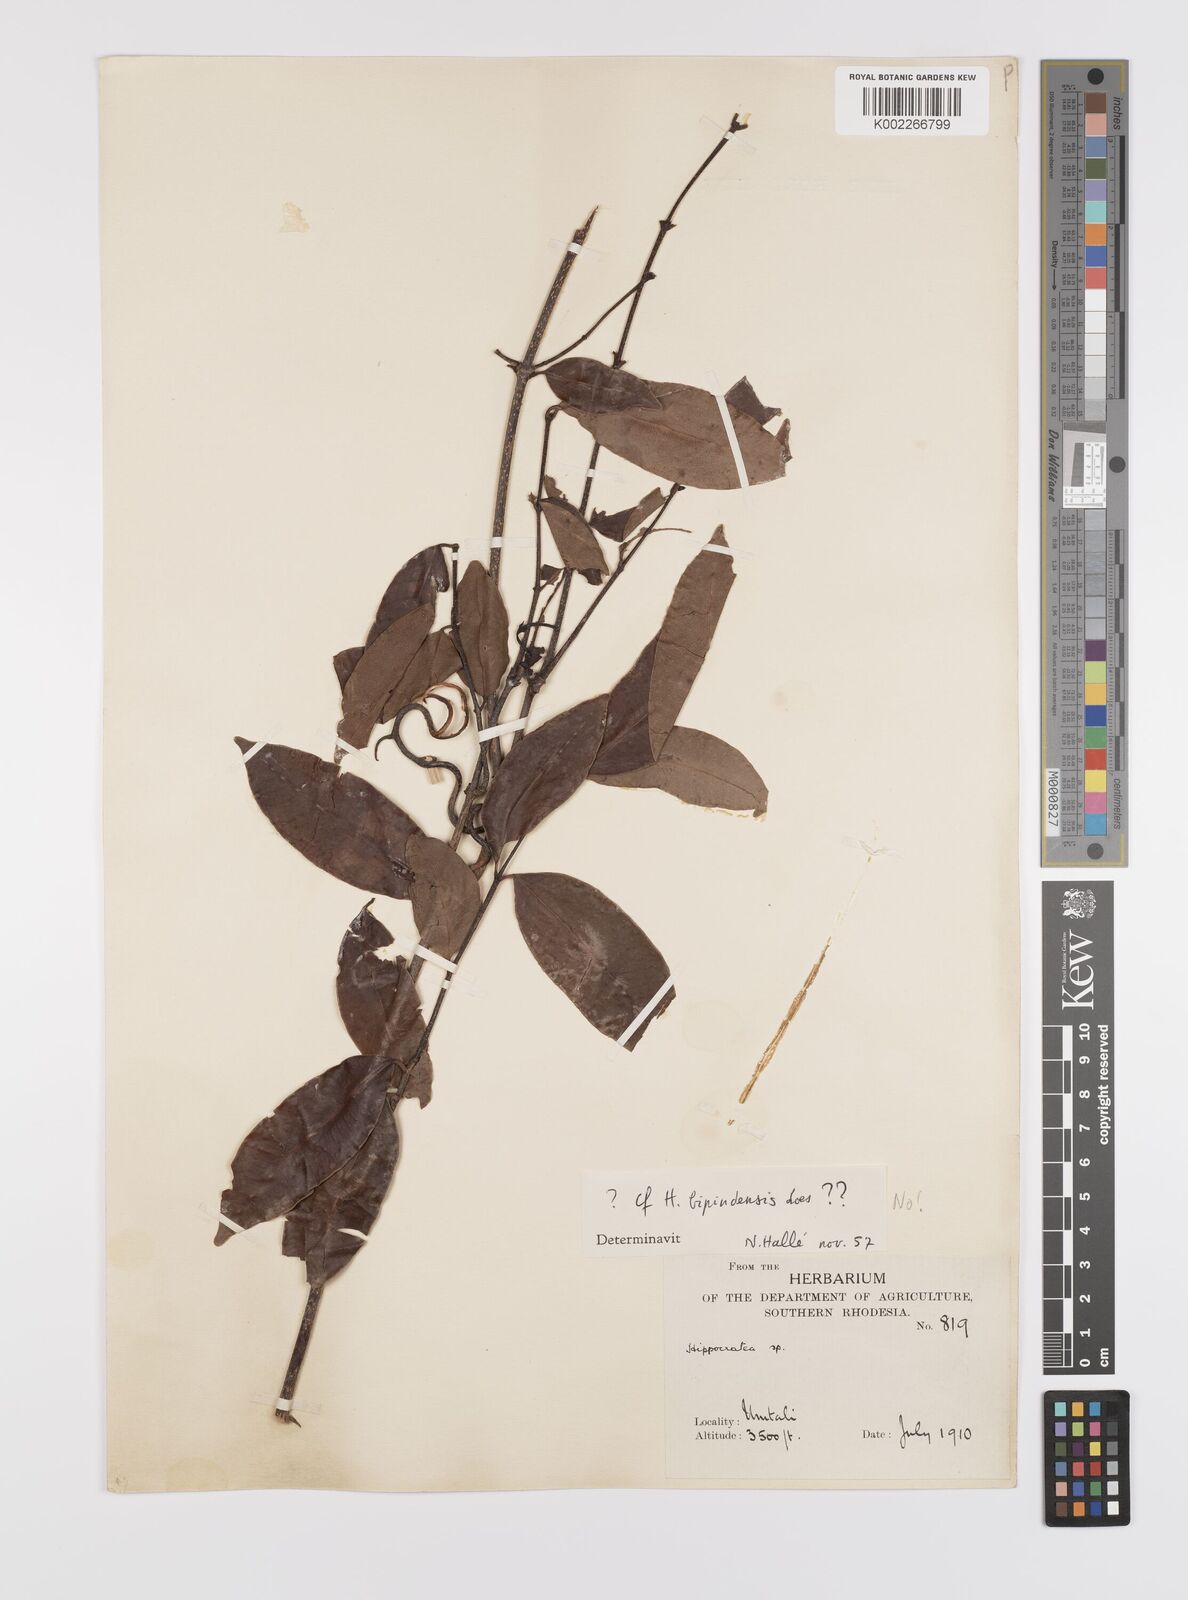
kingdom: Plantae
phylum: Tracheophyta
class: Magnoliopsida
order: Celastrales
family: Celastraceae
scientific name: Celastraceae
